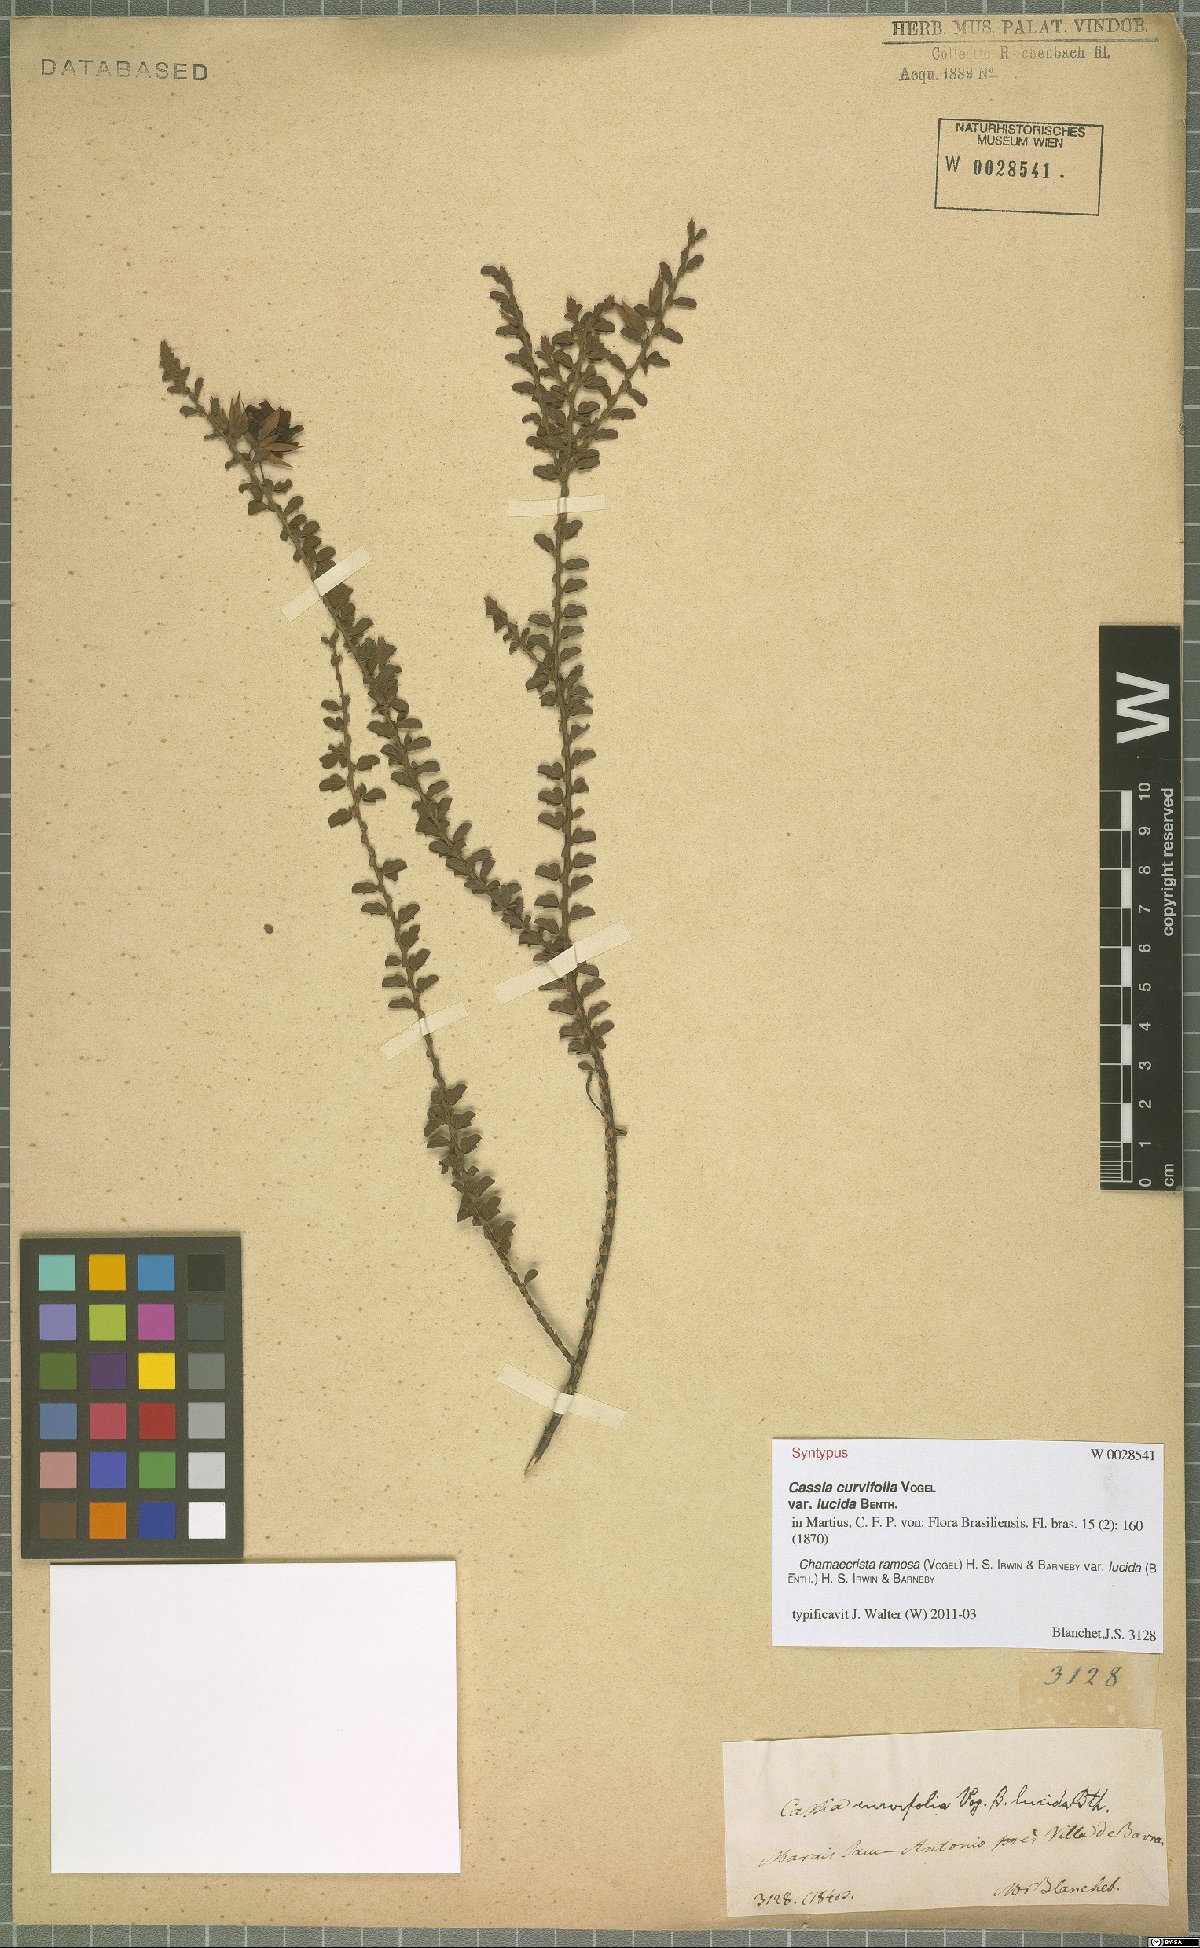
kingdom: Plantae
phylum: Tracheophyta
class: Magnoliopsida
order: Fabales
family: Fabaceae
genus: Chamaecrista
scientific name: Chamaecrista ramosa
